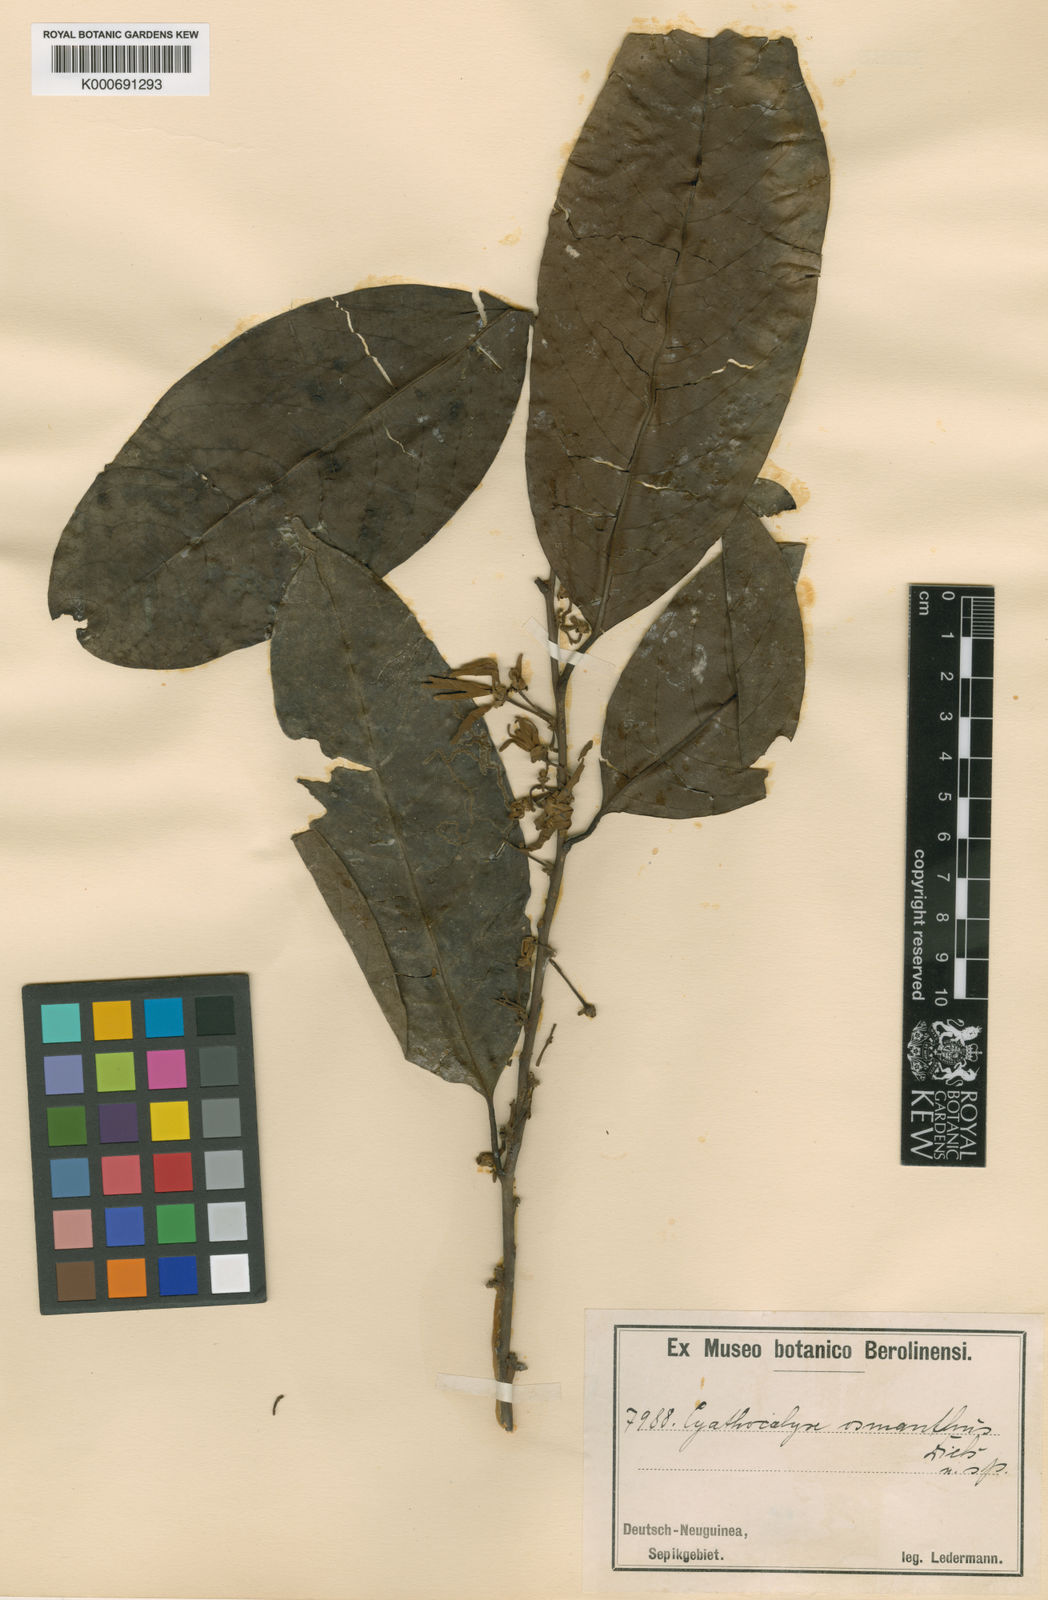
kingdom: Plantae
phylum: Tracheophyta
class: Magnoliopsida
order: Magnoliales
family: Annonaceae
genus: Drepananthus
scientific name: Drepananthus obtusifolius
